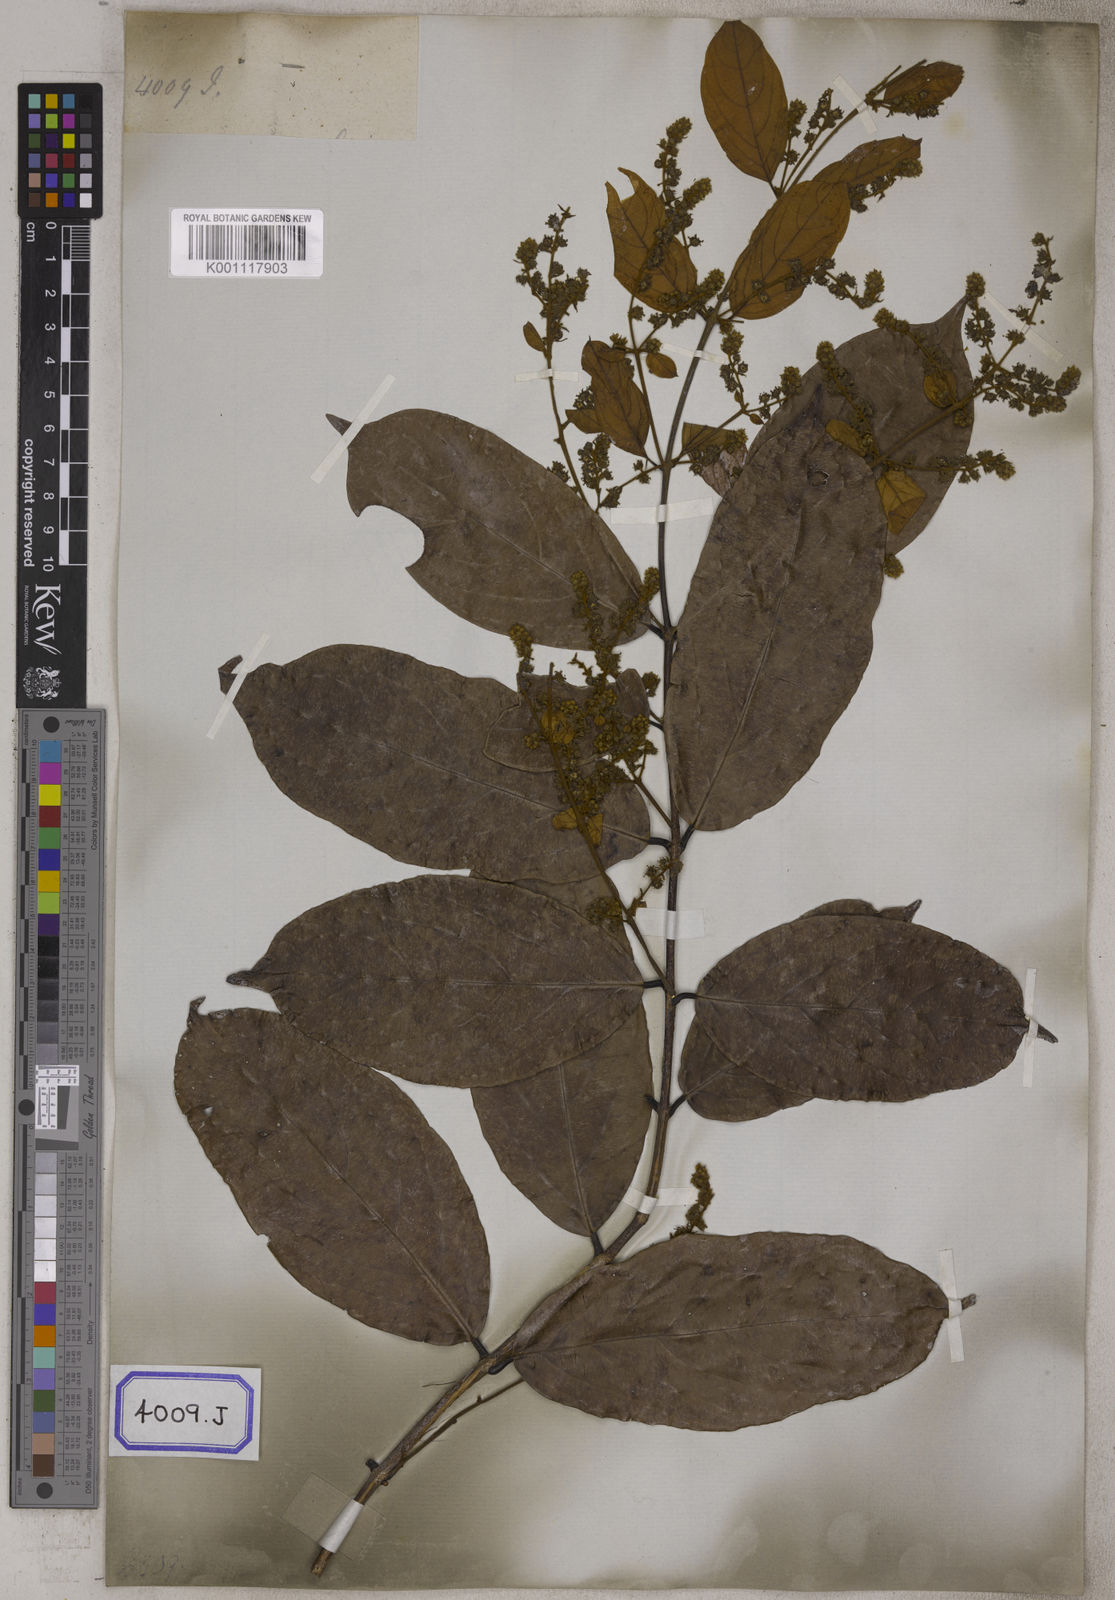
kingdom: Plantae
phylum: Tracheophyta
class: Magnoliopsida
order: Myrtales
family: Combretaceae
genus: Combretum
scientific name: Combretum decandrum
